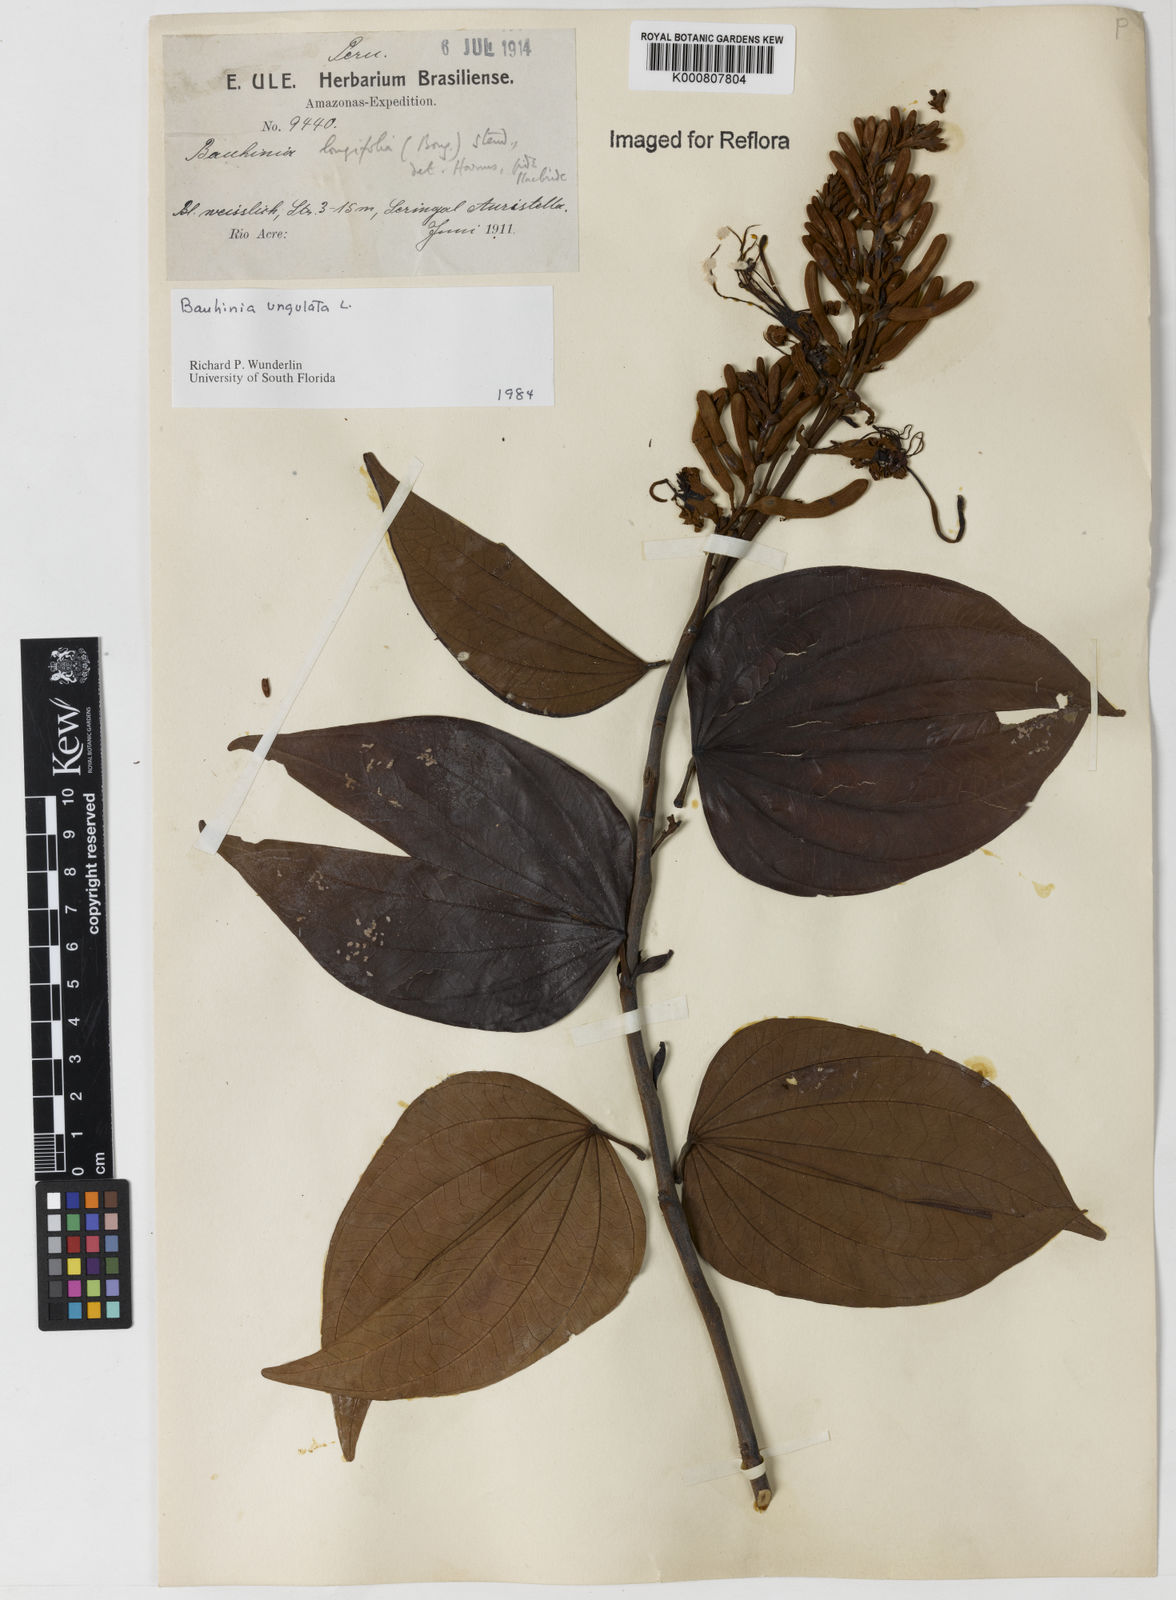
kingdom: Plantae
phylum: Tracheophyta
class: Magnoliopsida
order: Fabales
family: Fabaceae
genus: Bauhinia
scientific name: Bauhinia ungulata
